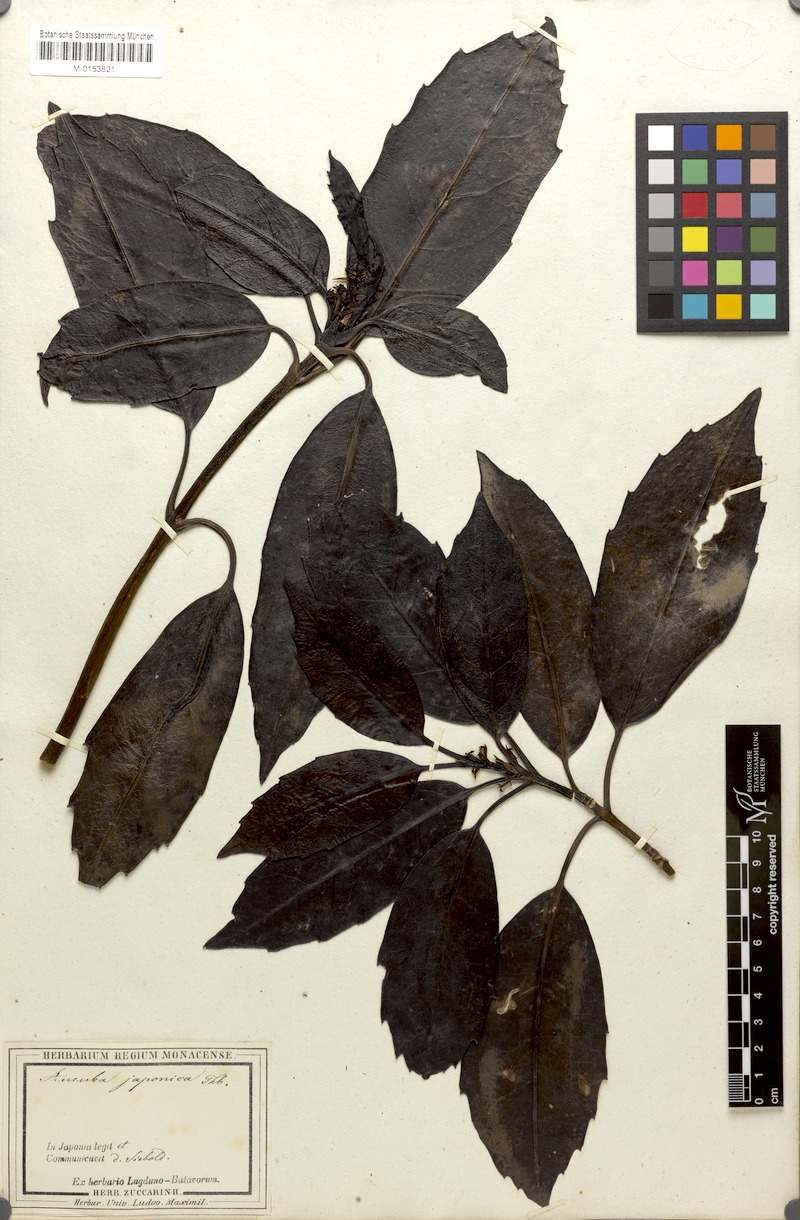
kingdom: Plantae
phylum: Tracheophyta
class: Magnoliopsida
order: Garryales
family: Garryaceae
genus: Aucuba
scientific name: Aucuba japonica
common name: Spotted-laurel
